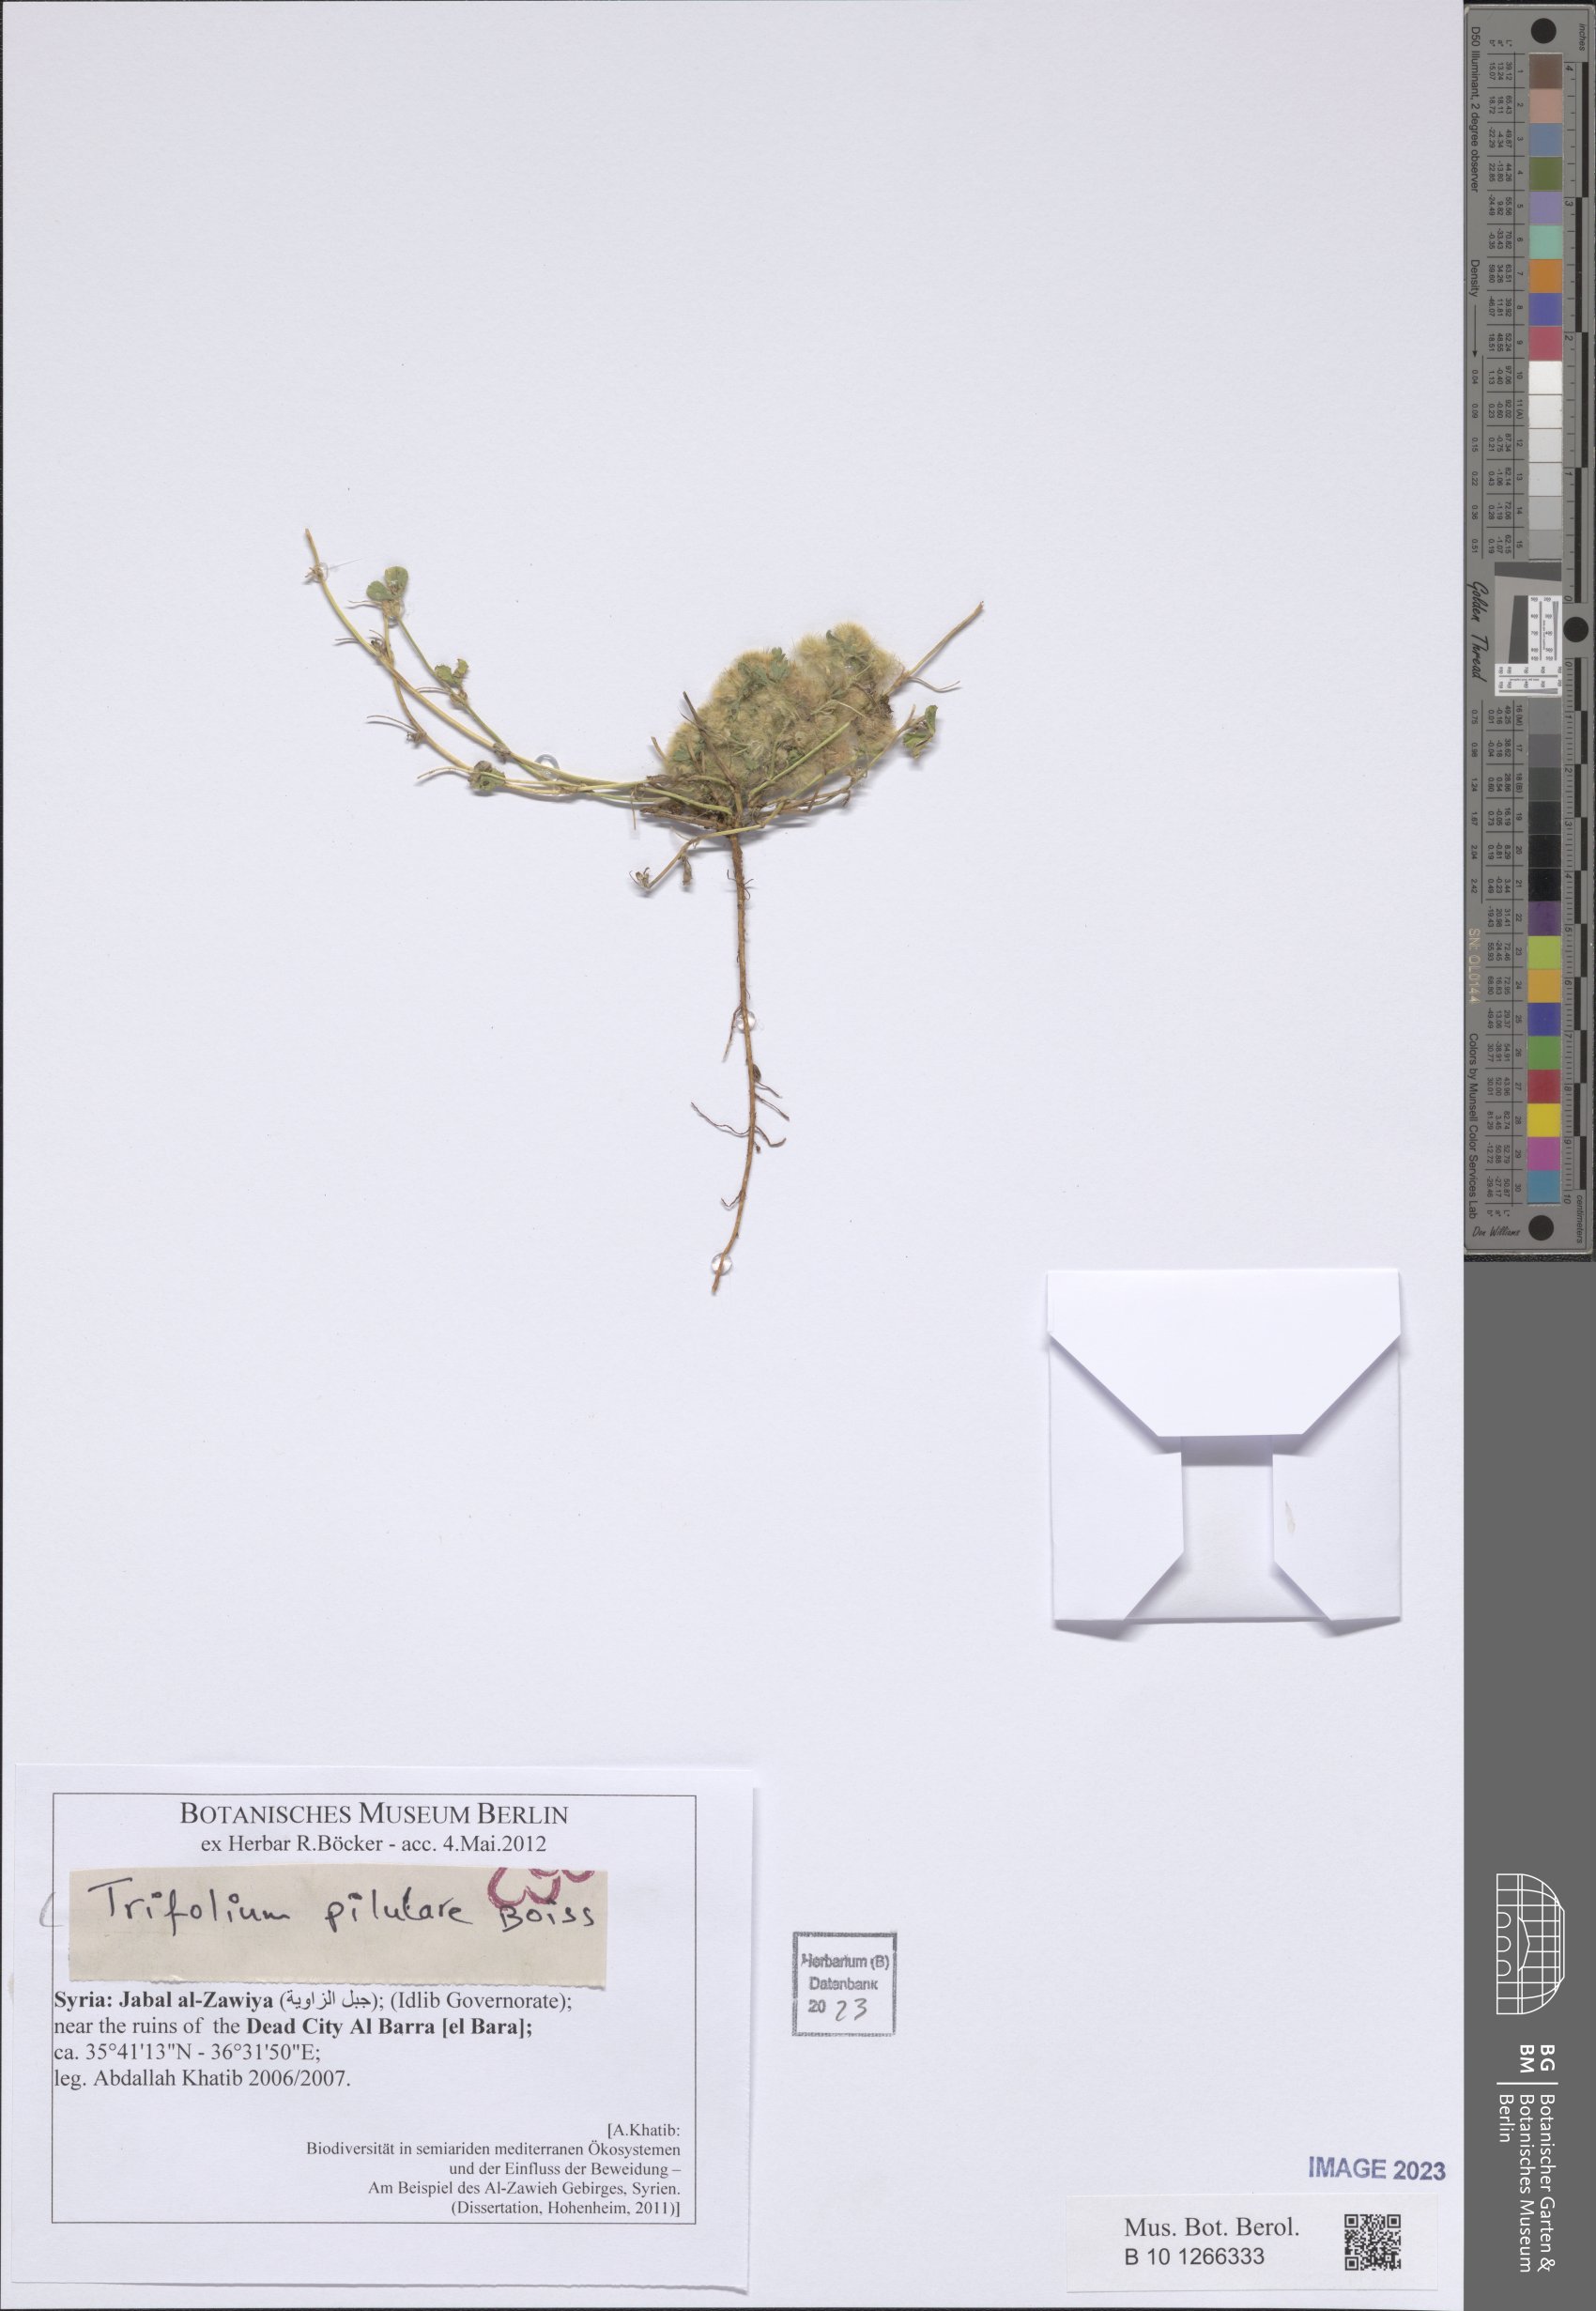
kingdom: Plantae
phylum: Tracheophyta
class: Magnoliopsida
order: Fabales
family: Fabaceae
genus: Trifolium
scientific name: Trifolium pilulare
